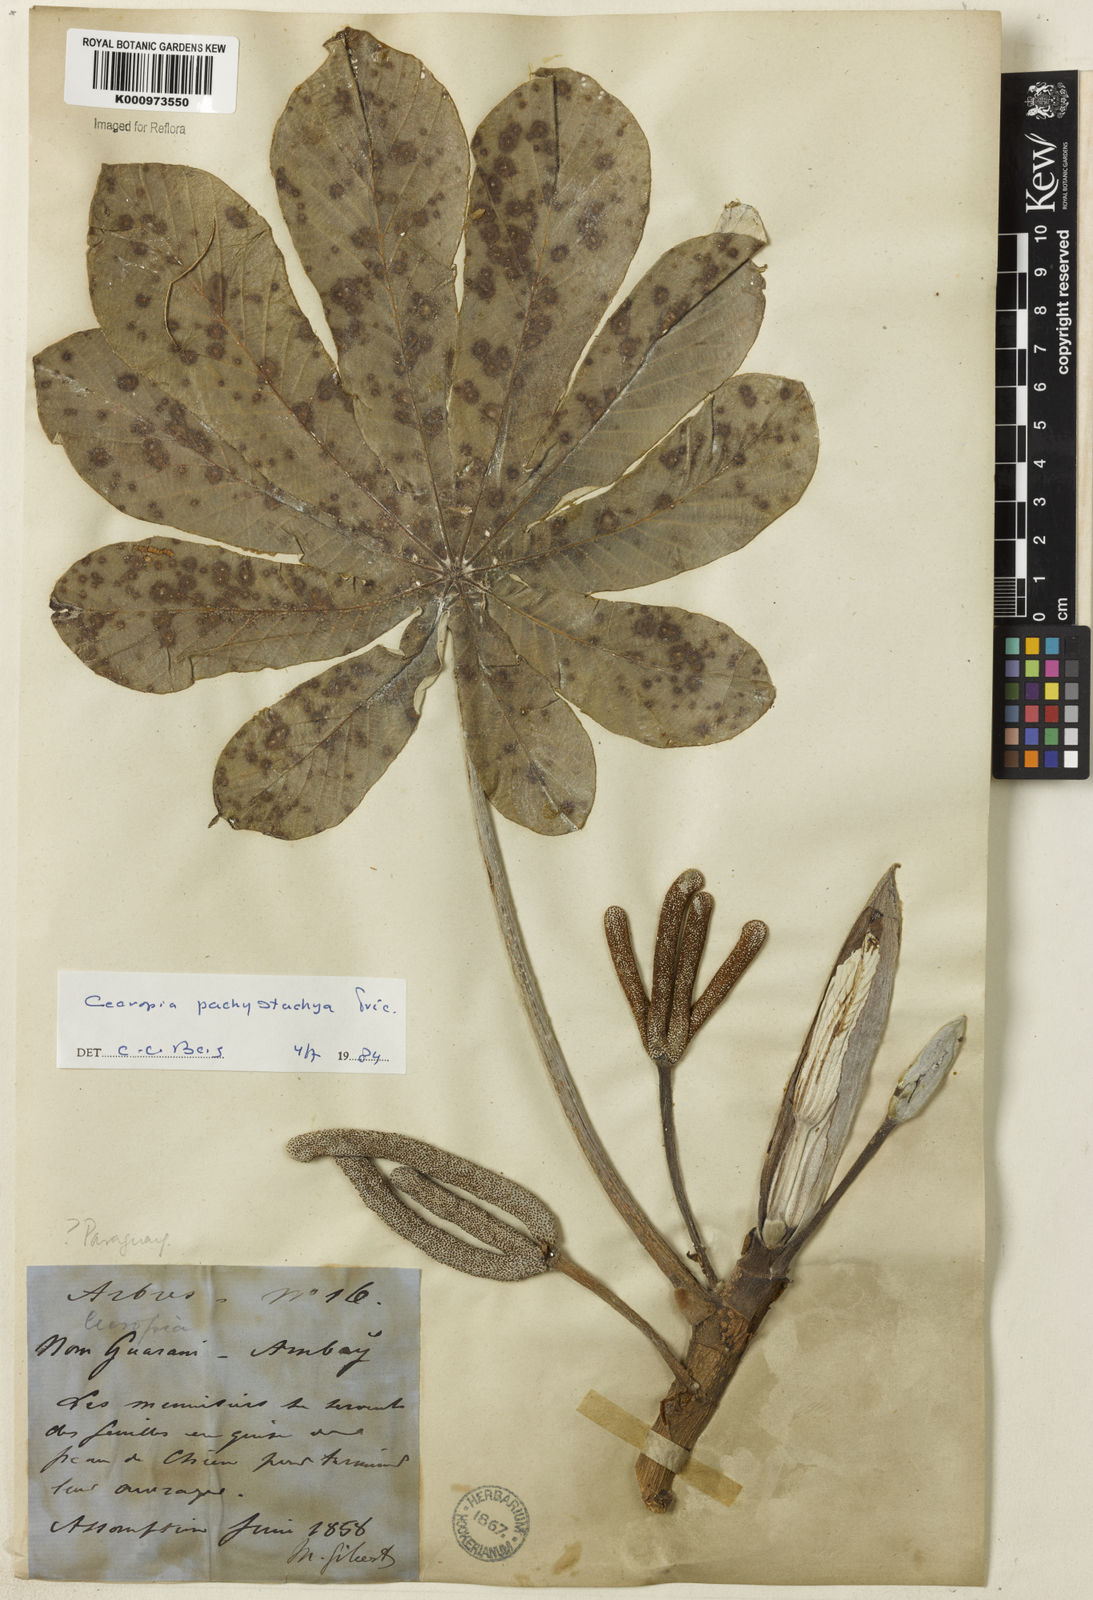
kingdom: Plantae
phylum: Tracheophyta
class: Magnoliopsida
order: Rosales
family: Urticaceae
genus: Cecropia
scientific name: Cecropia
